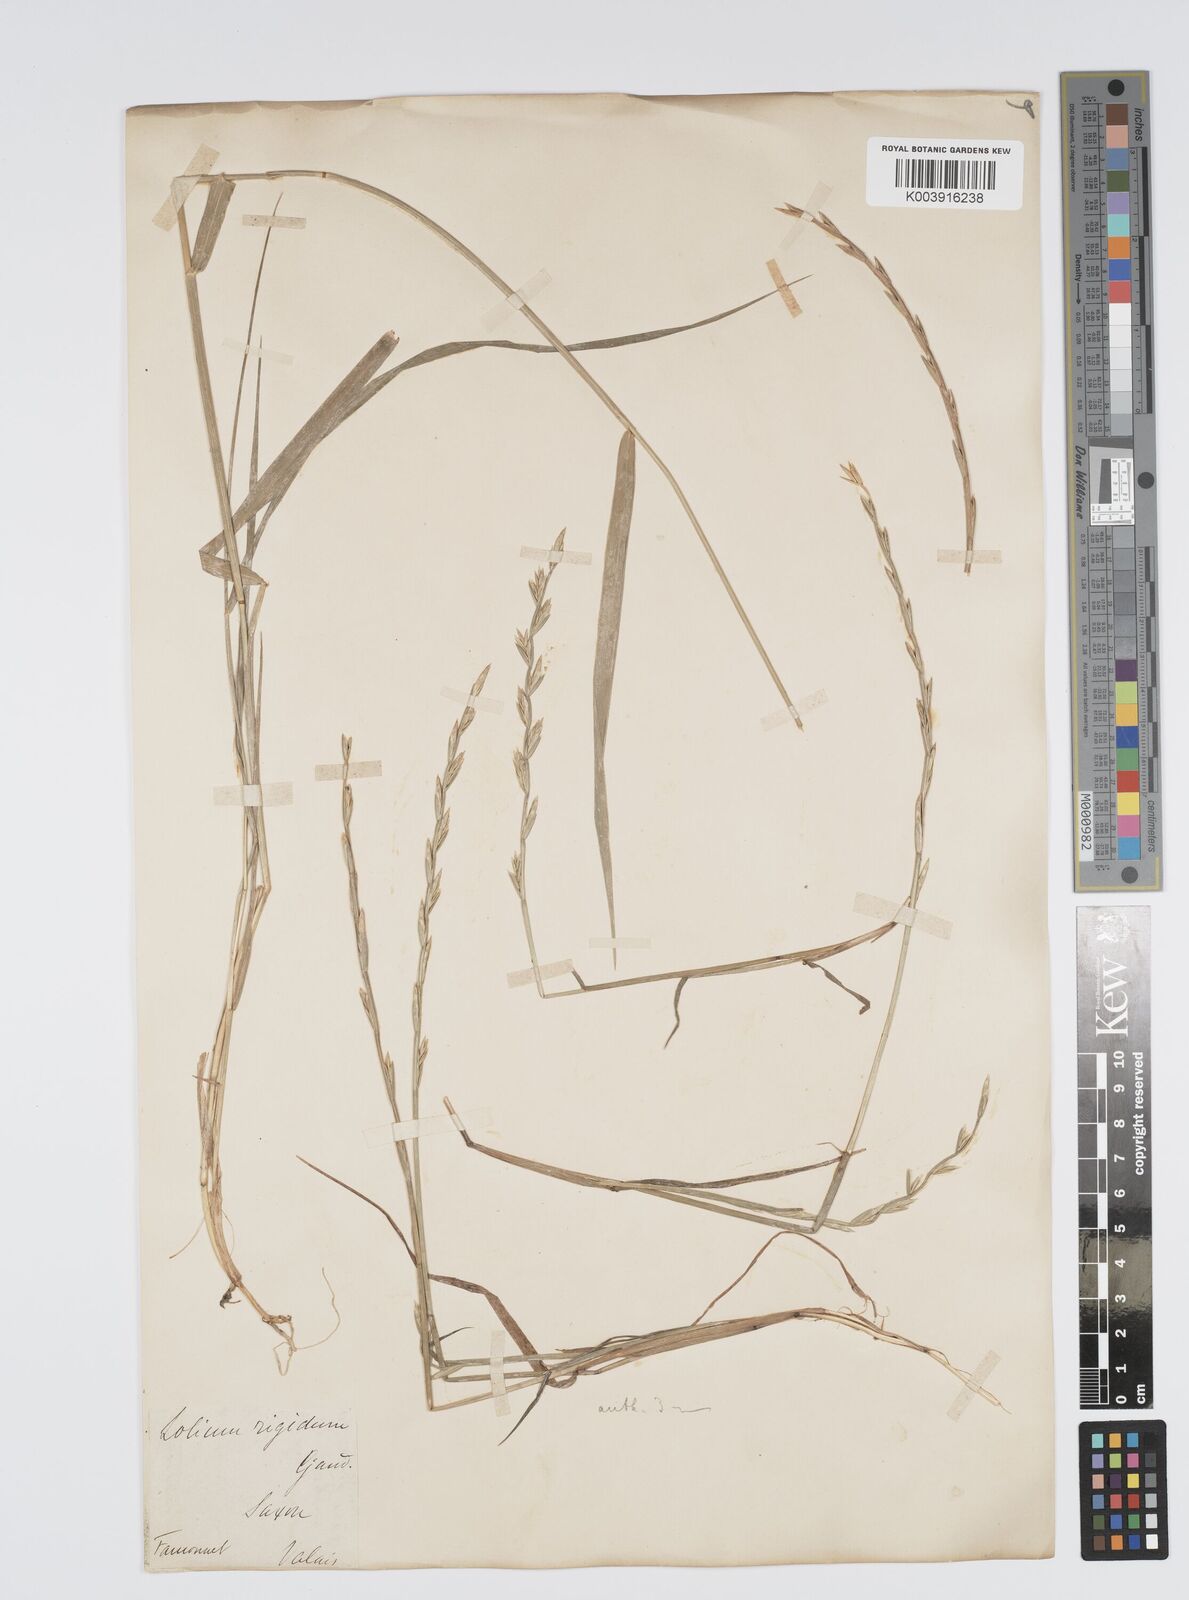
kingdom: Plantae
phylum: Tracheophyta
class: Liliopsida
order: Poales
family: Poaceae
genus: Lolium
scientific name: Lolium rigidum
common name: Wimmera ryegrass
